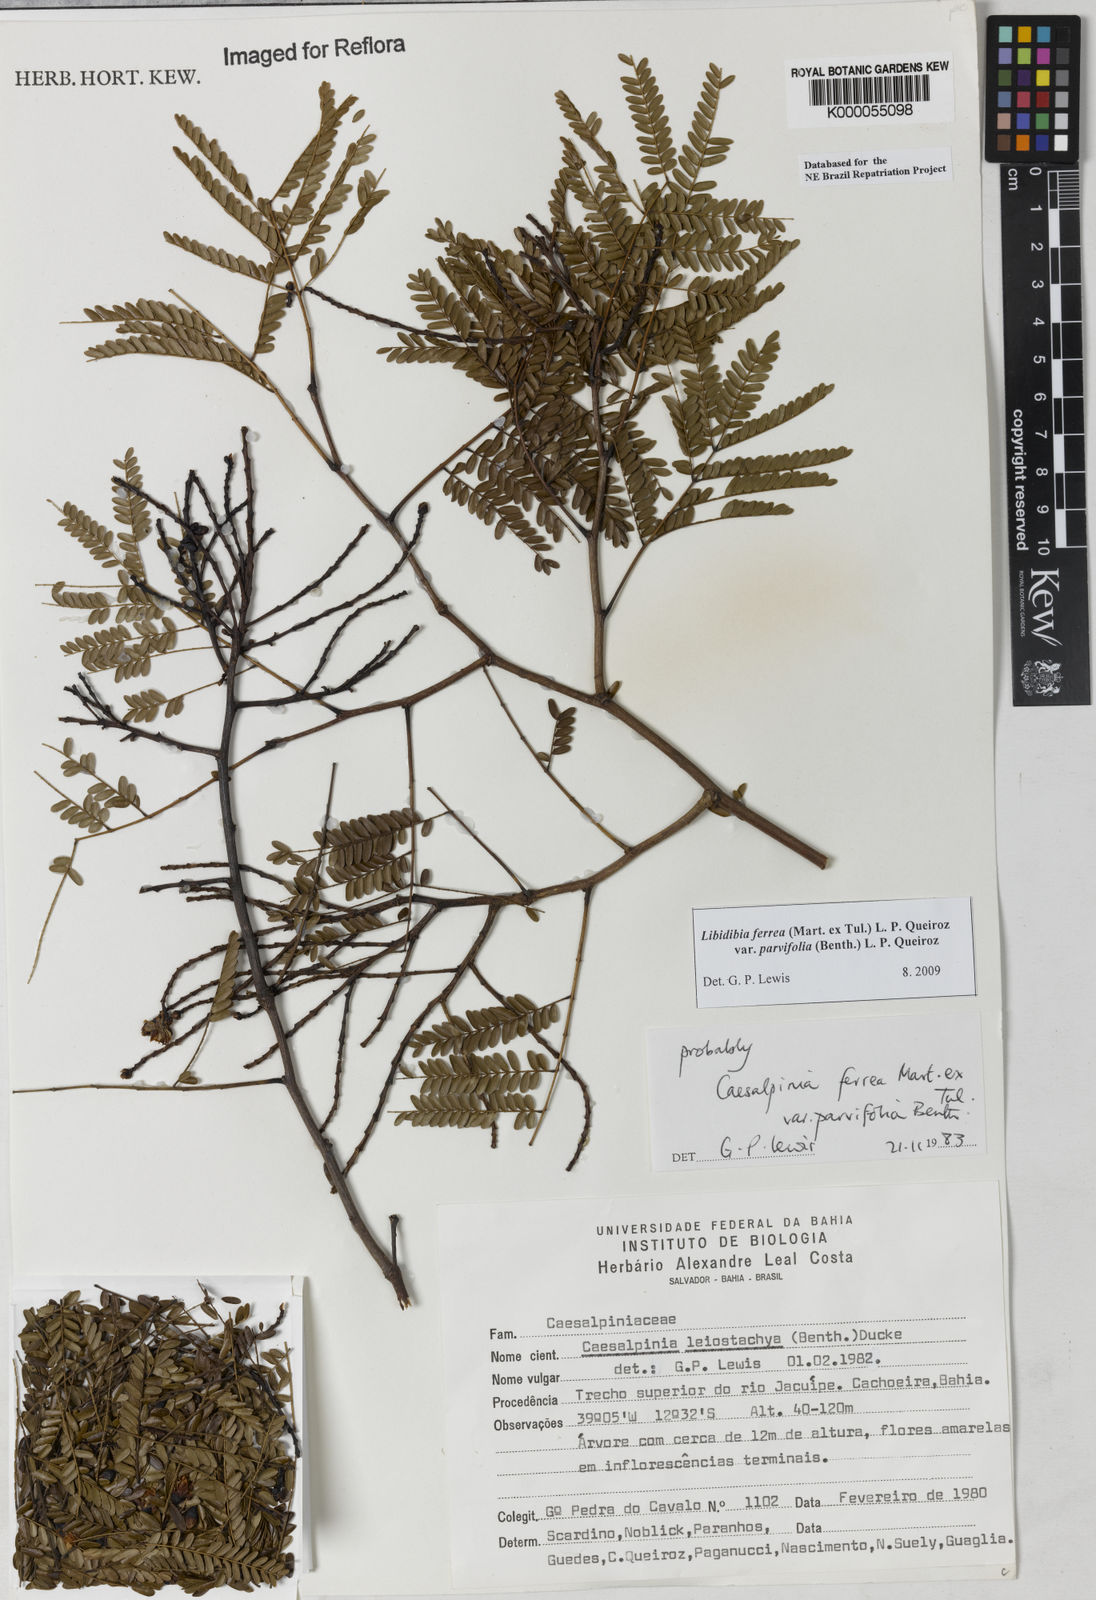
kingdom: Plantae
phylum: Tracheophyta
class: Magnoliopsida
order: Fabales
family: Fabaceae
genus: Libidibia
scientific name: Libidibia ferrea
